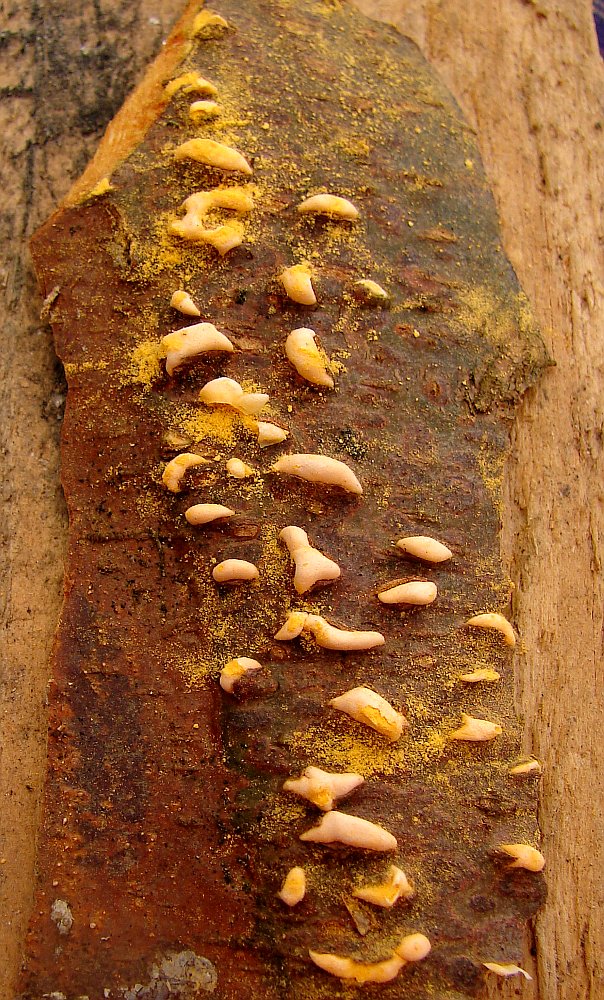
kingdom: Fungi
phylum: Basidiomycota
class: Pucciniomycetes
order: Pucciniales
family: Cronartiaceae
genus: Cronartium
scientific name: Cronartium ribicola
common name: solbær-filtrust
